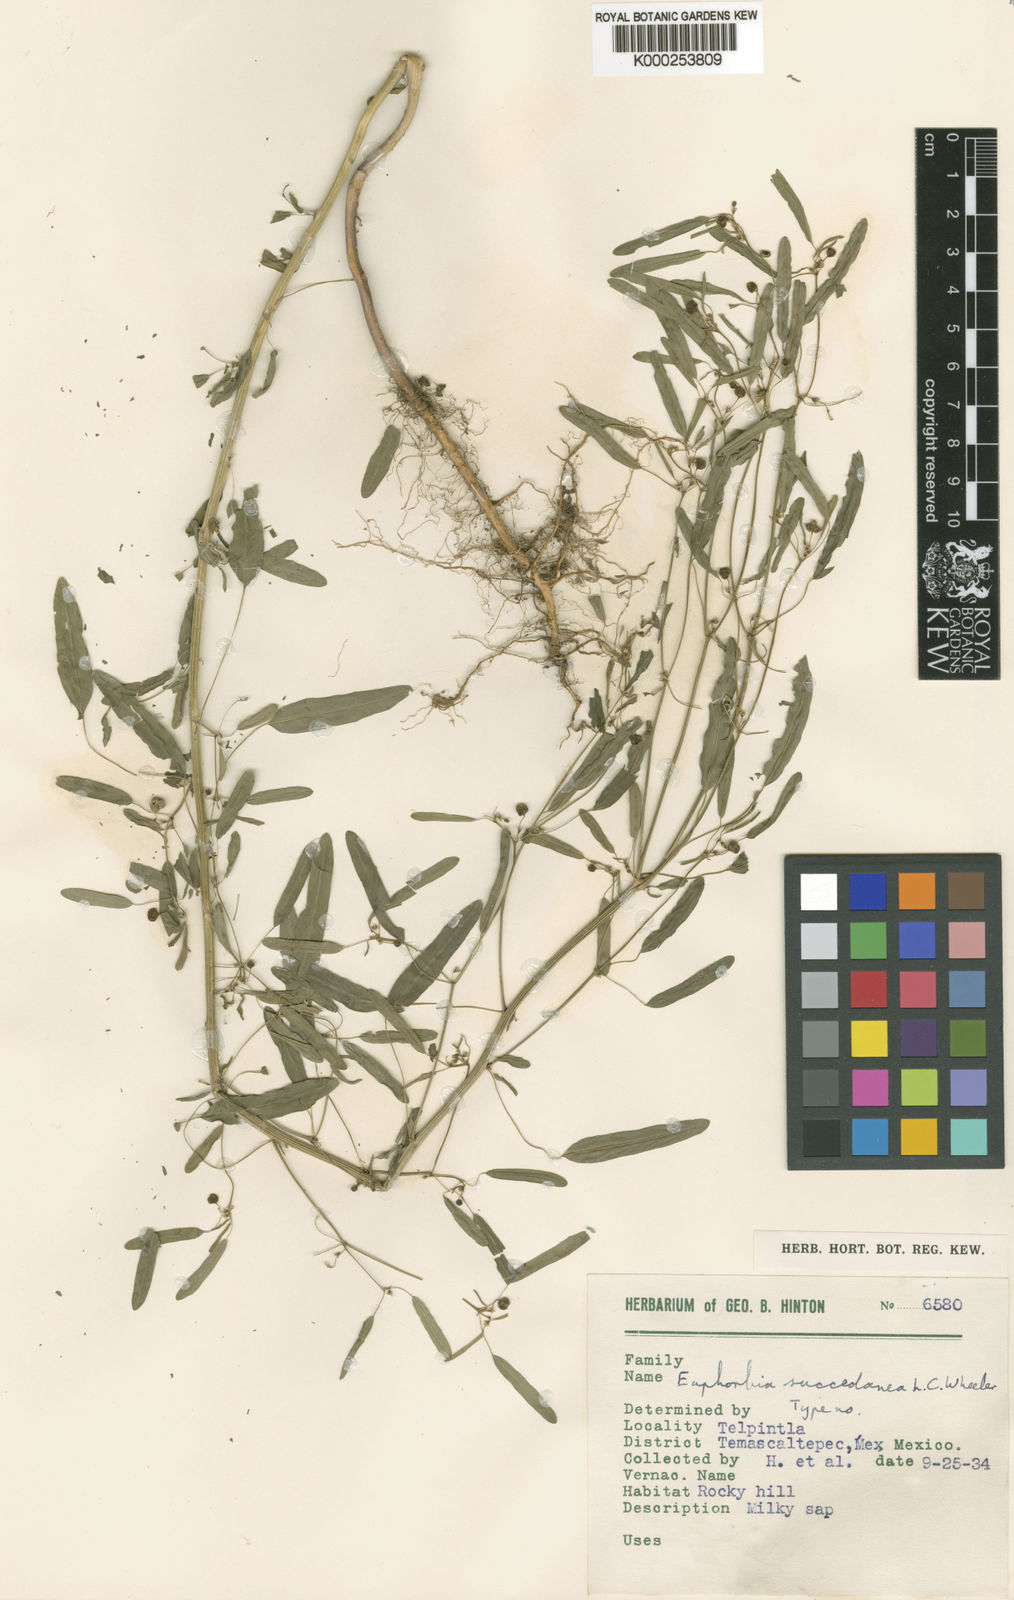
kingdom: Plantae
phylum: Tracheophyta
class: Magnoliopsida
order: Malpighiales
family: Euphorbiaceae
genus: Euphorbia
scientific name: Euphorbia succedanea
